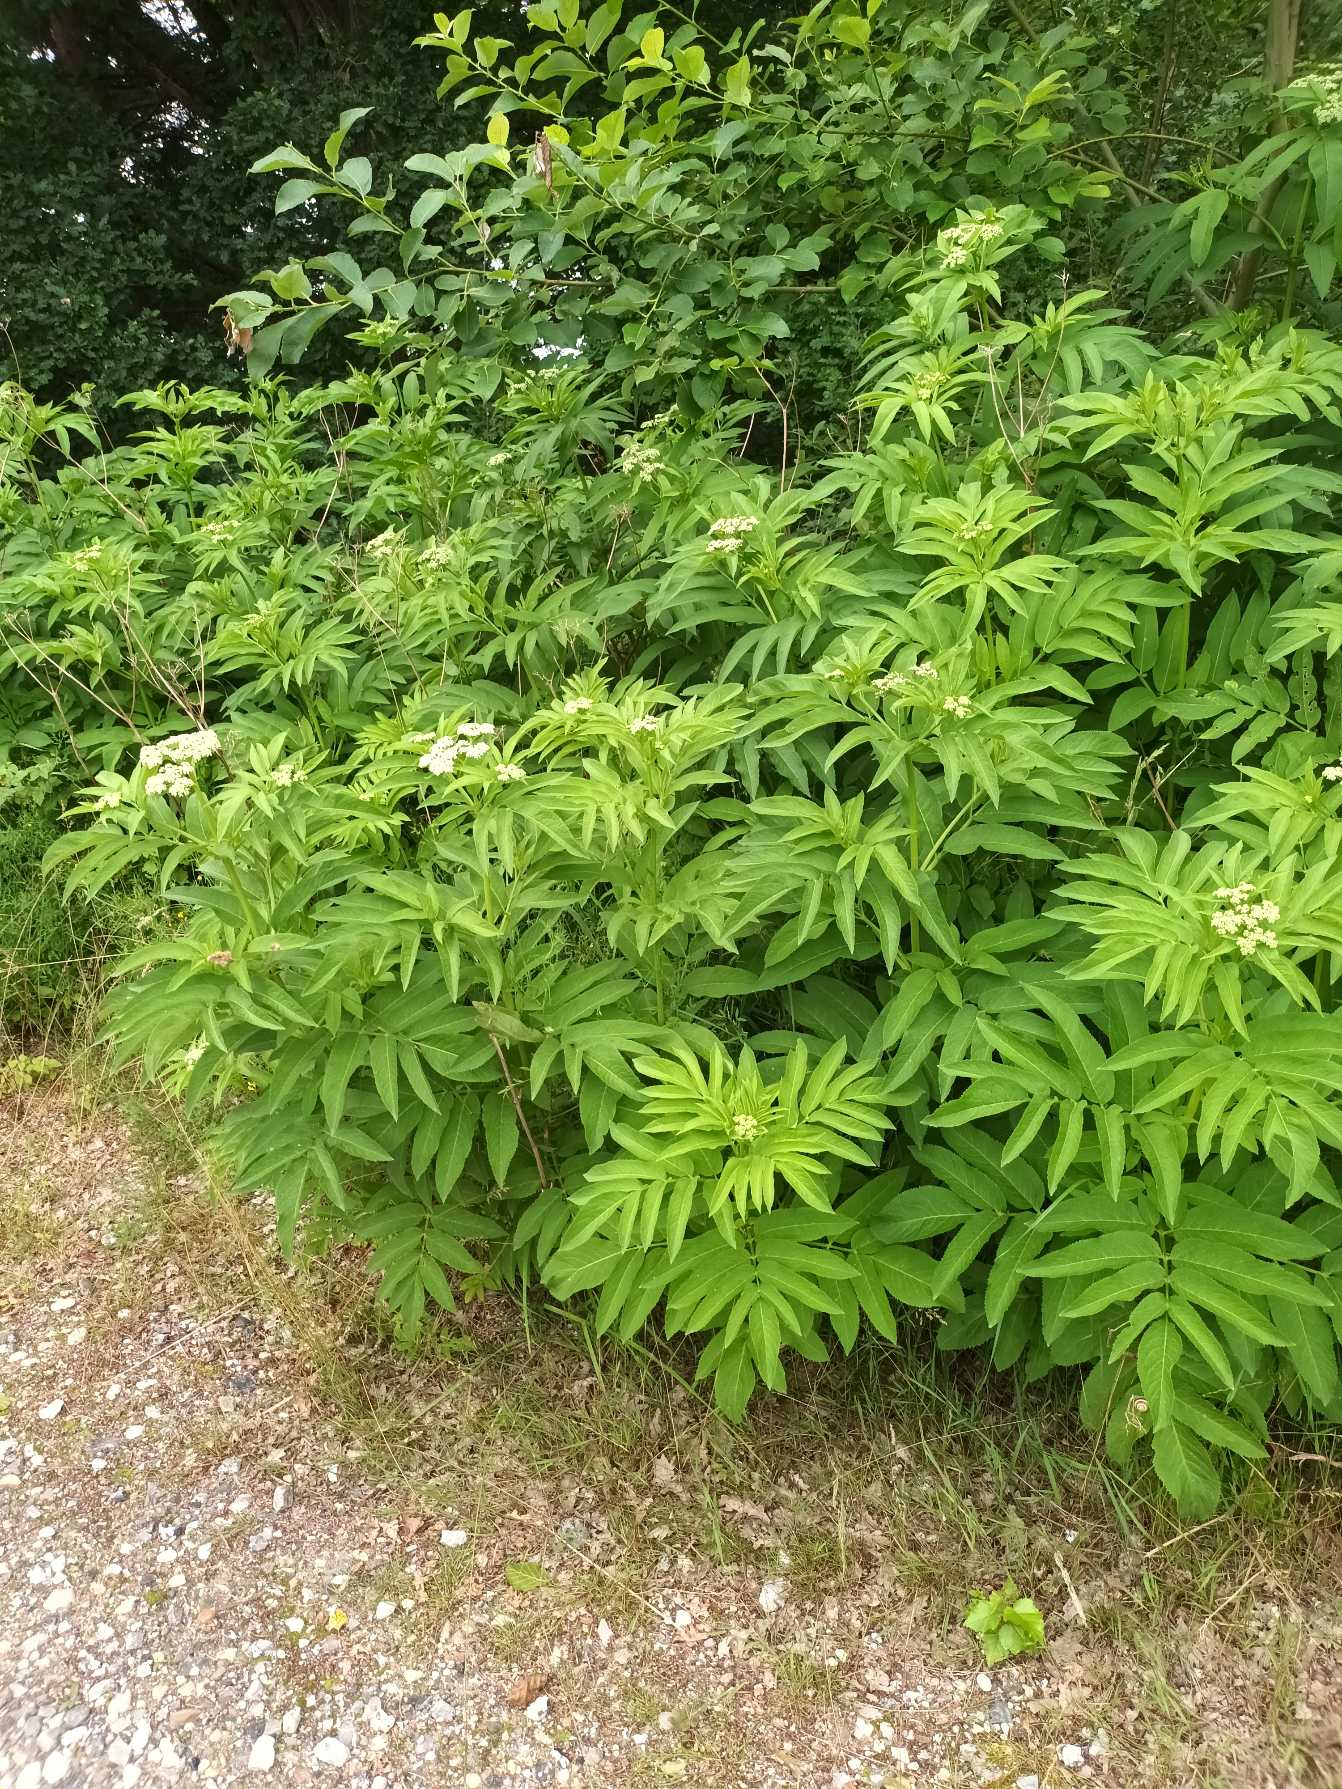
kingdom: Plantae
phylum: Tracheophyta
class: Magnoliopsida
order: Dipsacales
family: Viburnaceae
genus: Sambucus
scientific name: Sambucus ebulus
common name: Sommer-hyld
